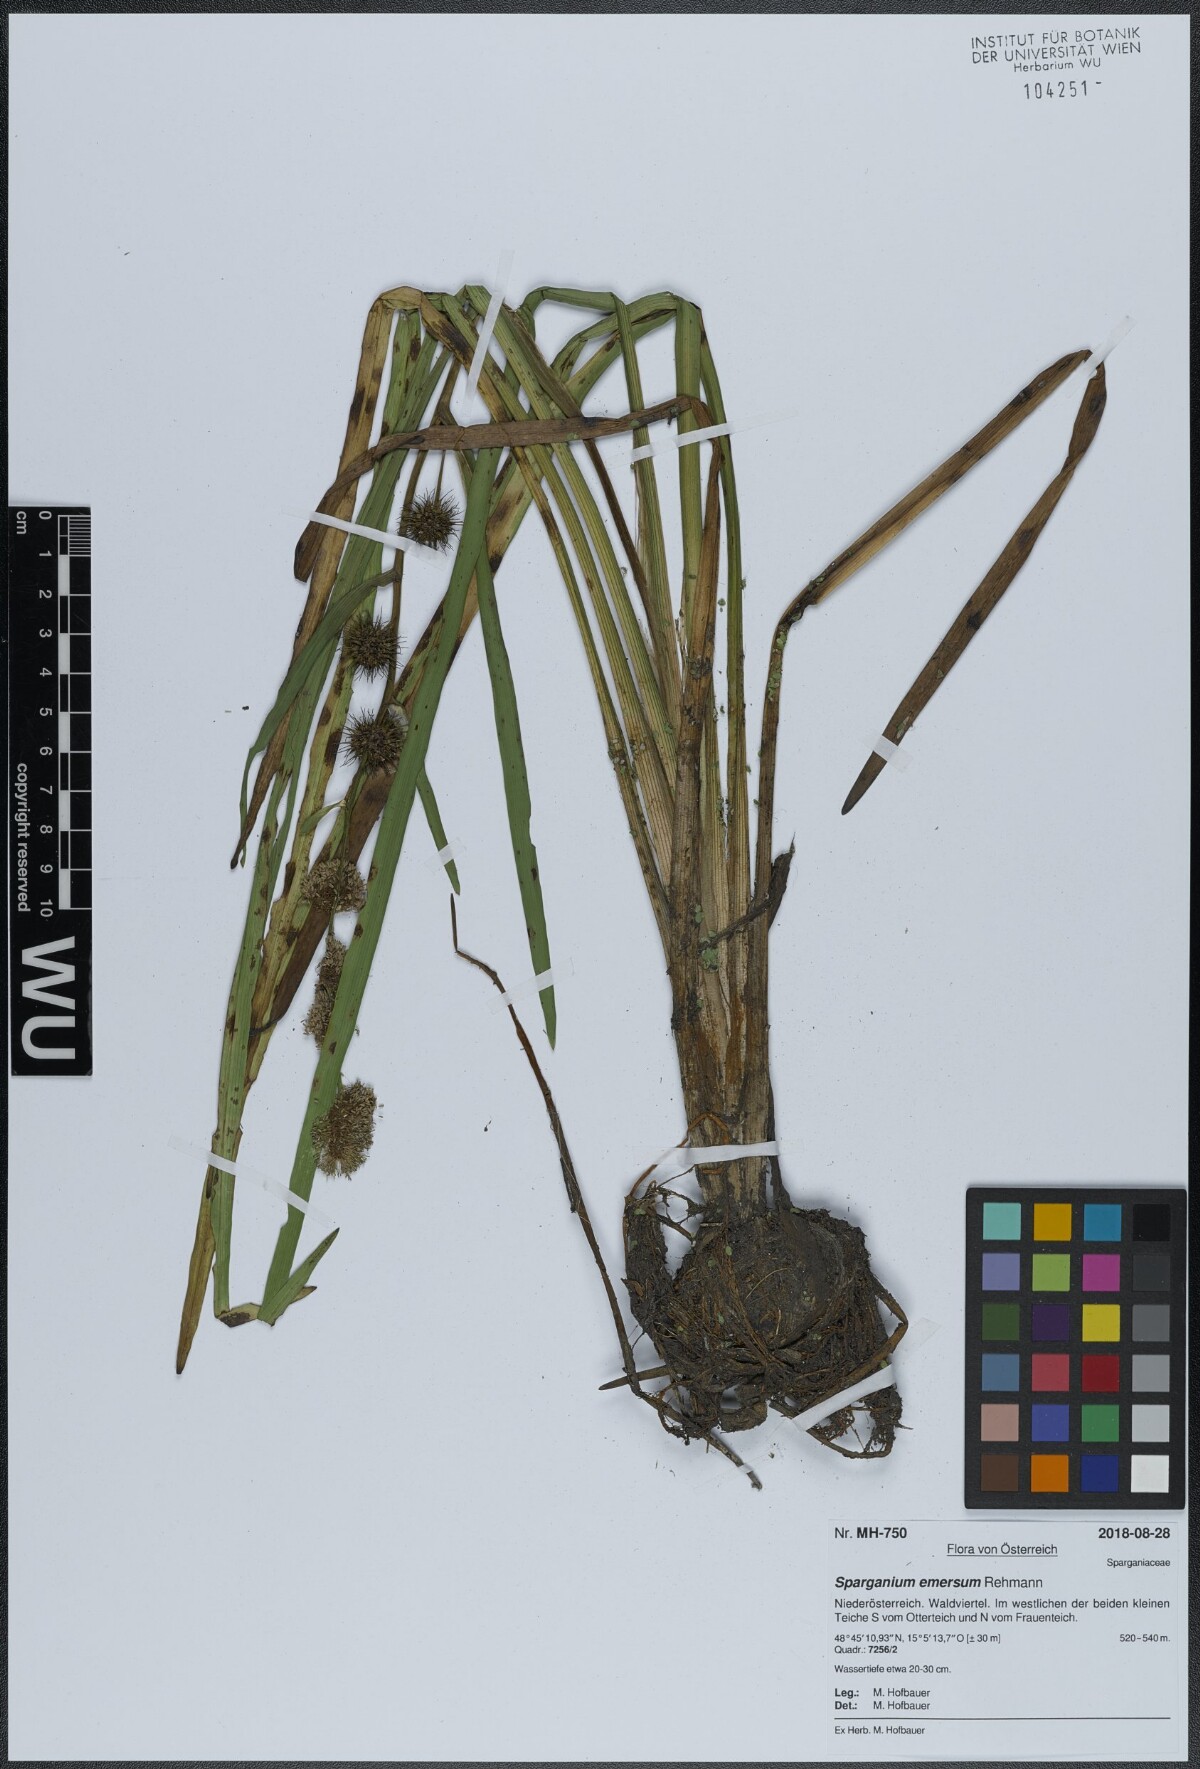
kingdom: Plantae
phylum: Tracheophyta
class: Liliopsida
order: Poales
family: Typhaceae
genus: Sparganium
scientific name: Sparganium emersum
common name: Unbranched bur-reed
